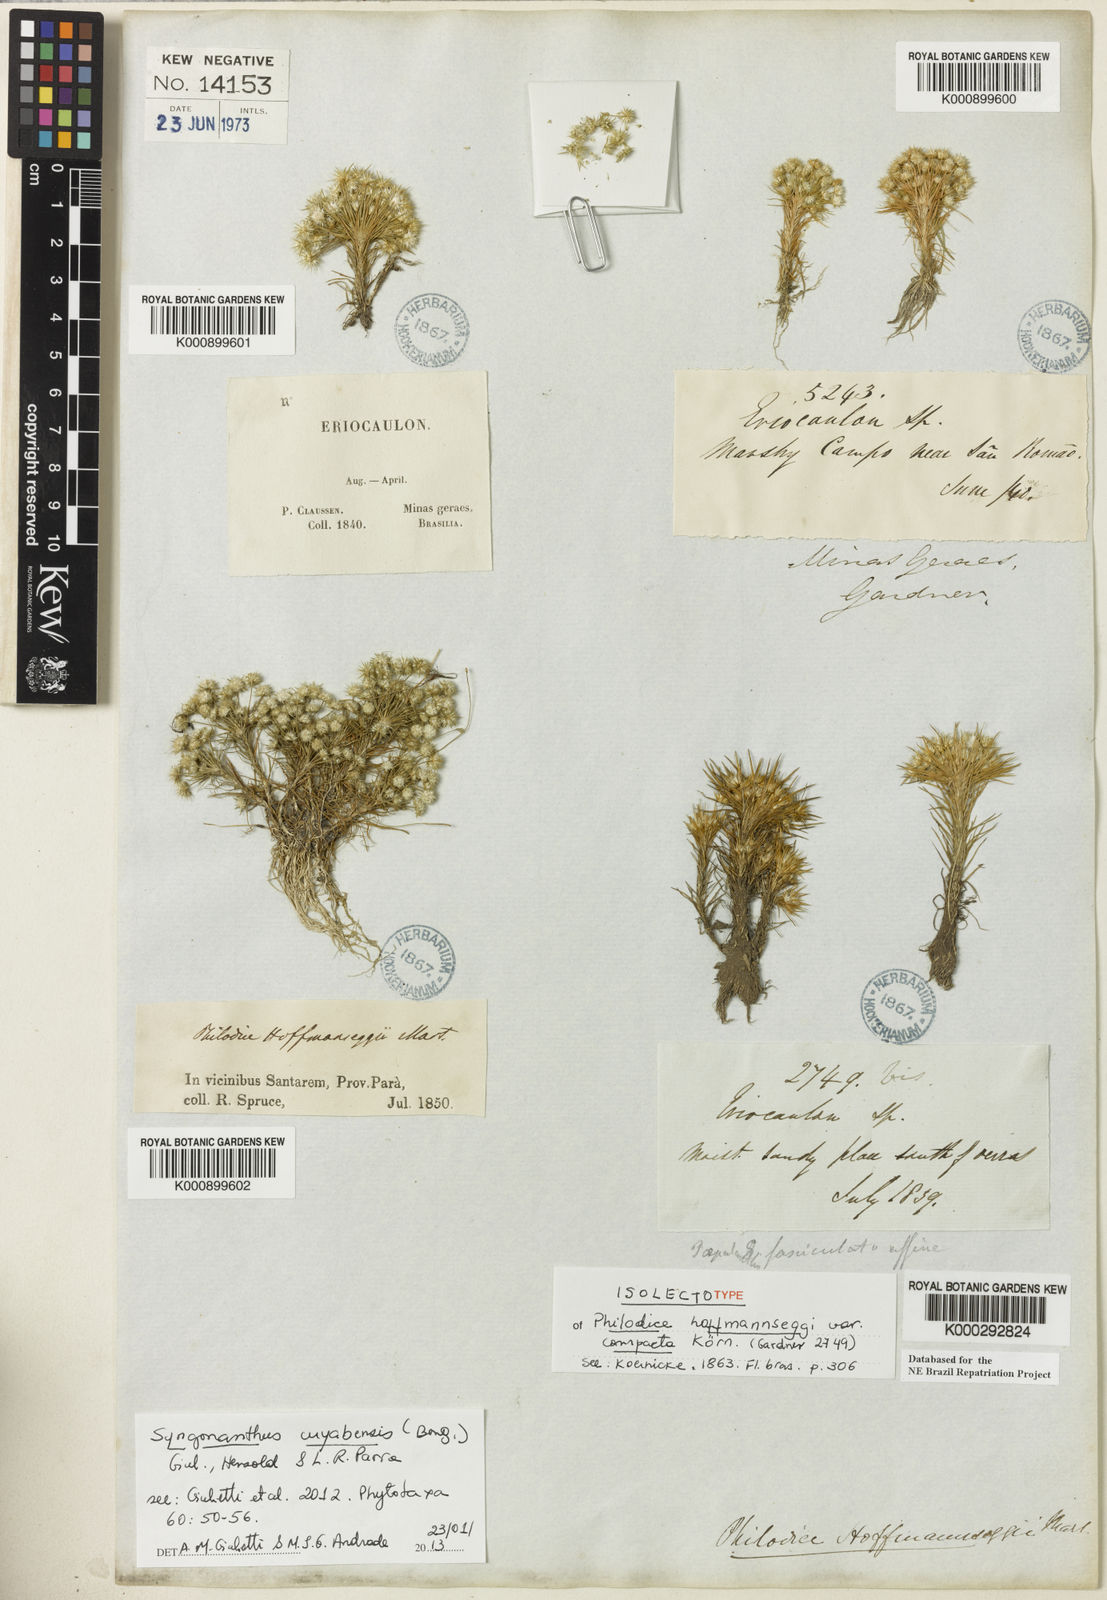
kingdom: Plantae
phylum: Tracheophyta
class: Liliopsida
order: Poales
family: Eriocaulaceae
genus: Syngonanthus
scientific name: Syngonanthus cuyabensis
